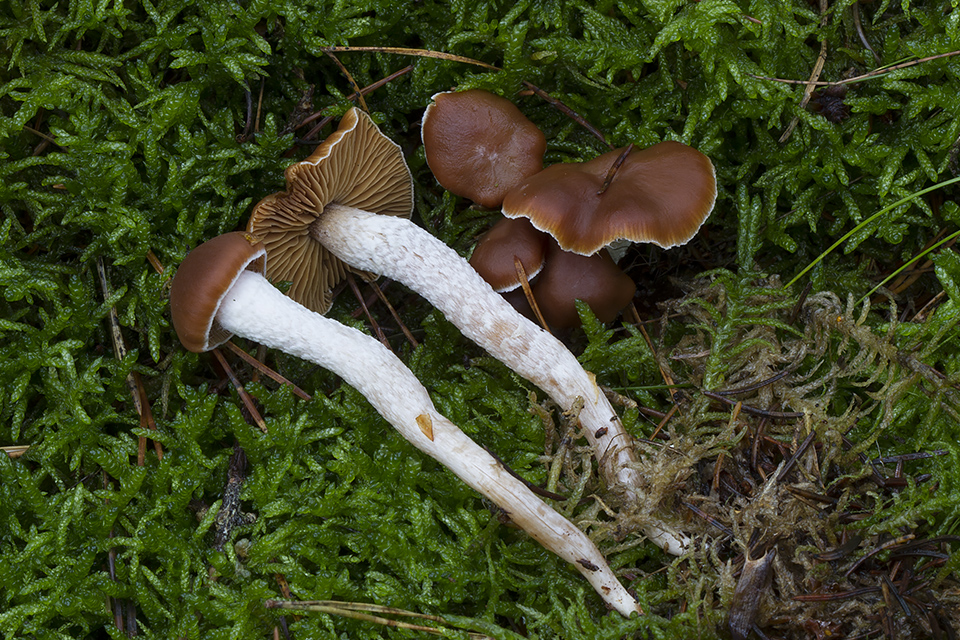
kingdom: Fungi
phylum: Basidiomycota
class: Agaricomycetes
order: Agaricales
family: Cortinariaceae
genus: Cortinarius
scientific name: Cortinarius obtusorum
